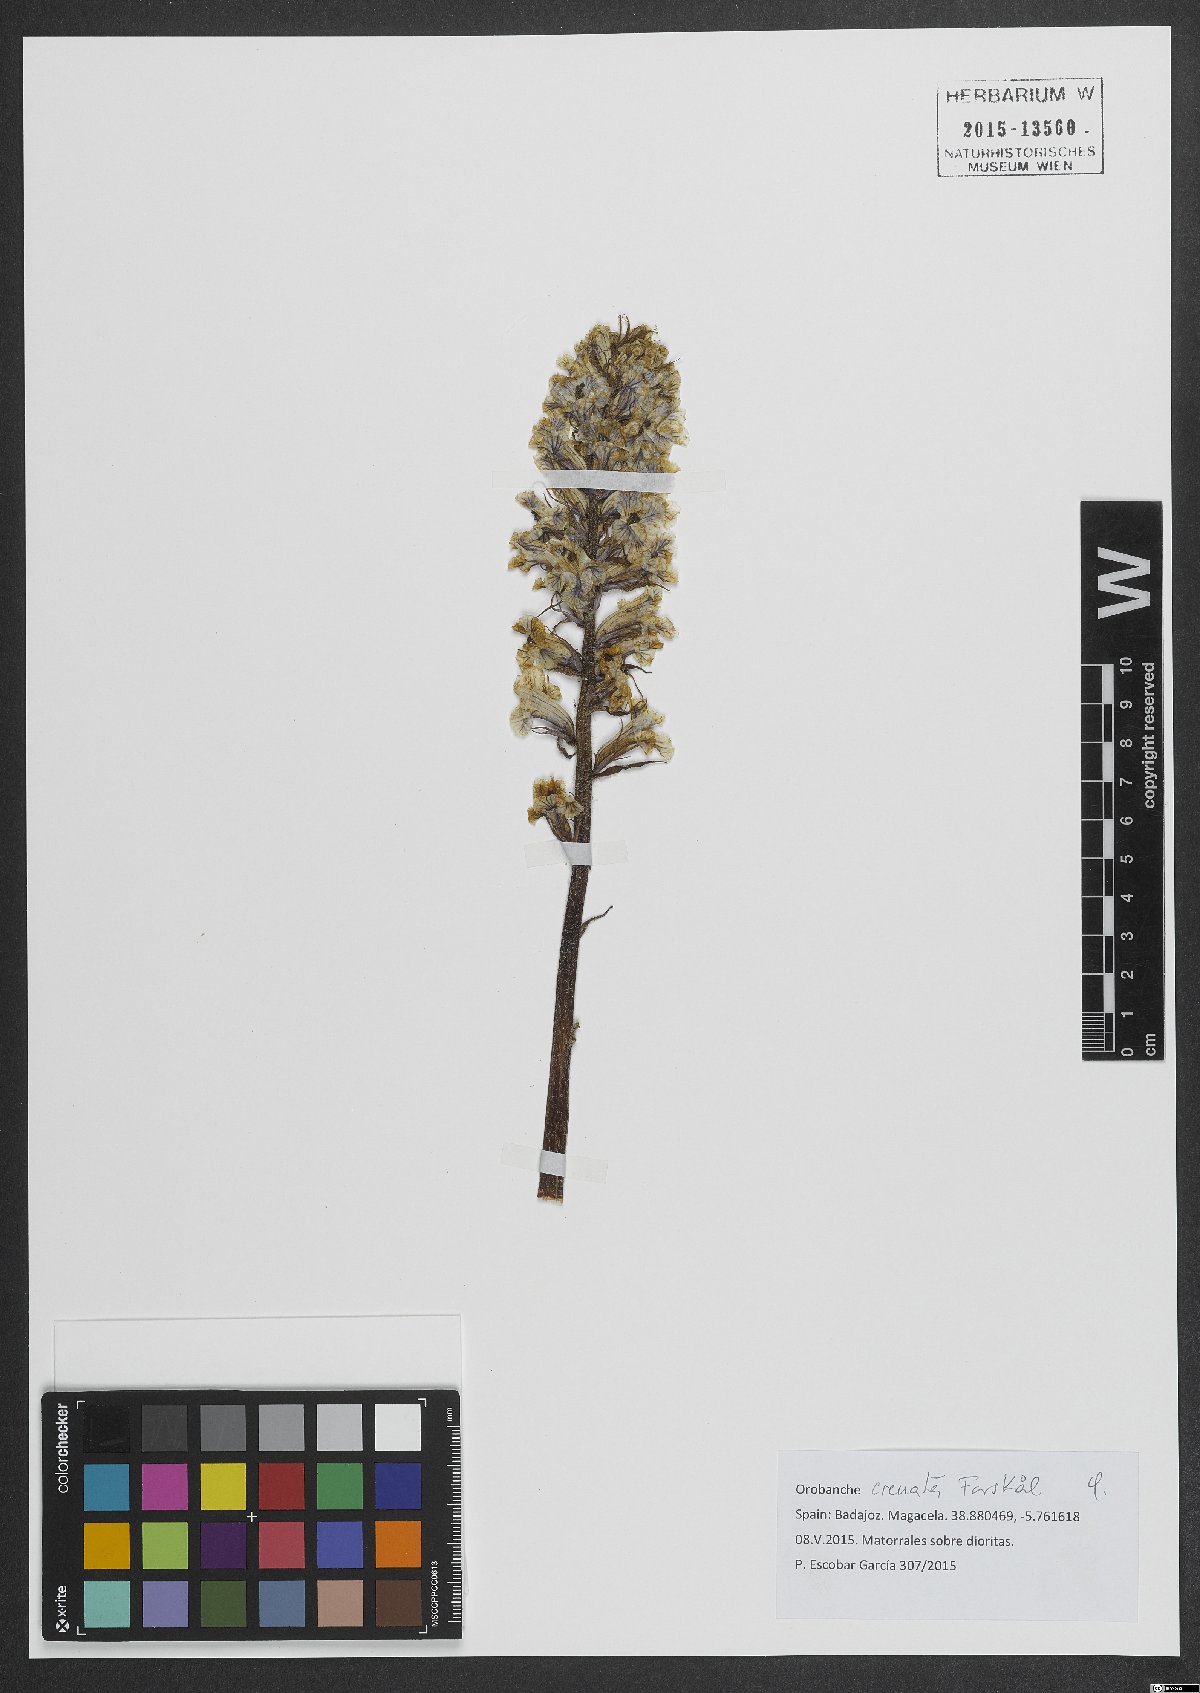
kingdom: Plantae
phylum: Tracheophyta
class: Magnoliopsida
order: Lamiales
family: Orobanchaceae
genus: Orobanche
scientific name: Orobanche crenata
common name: Bean broomrape
